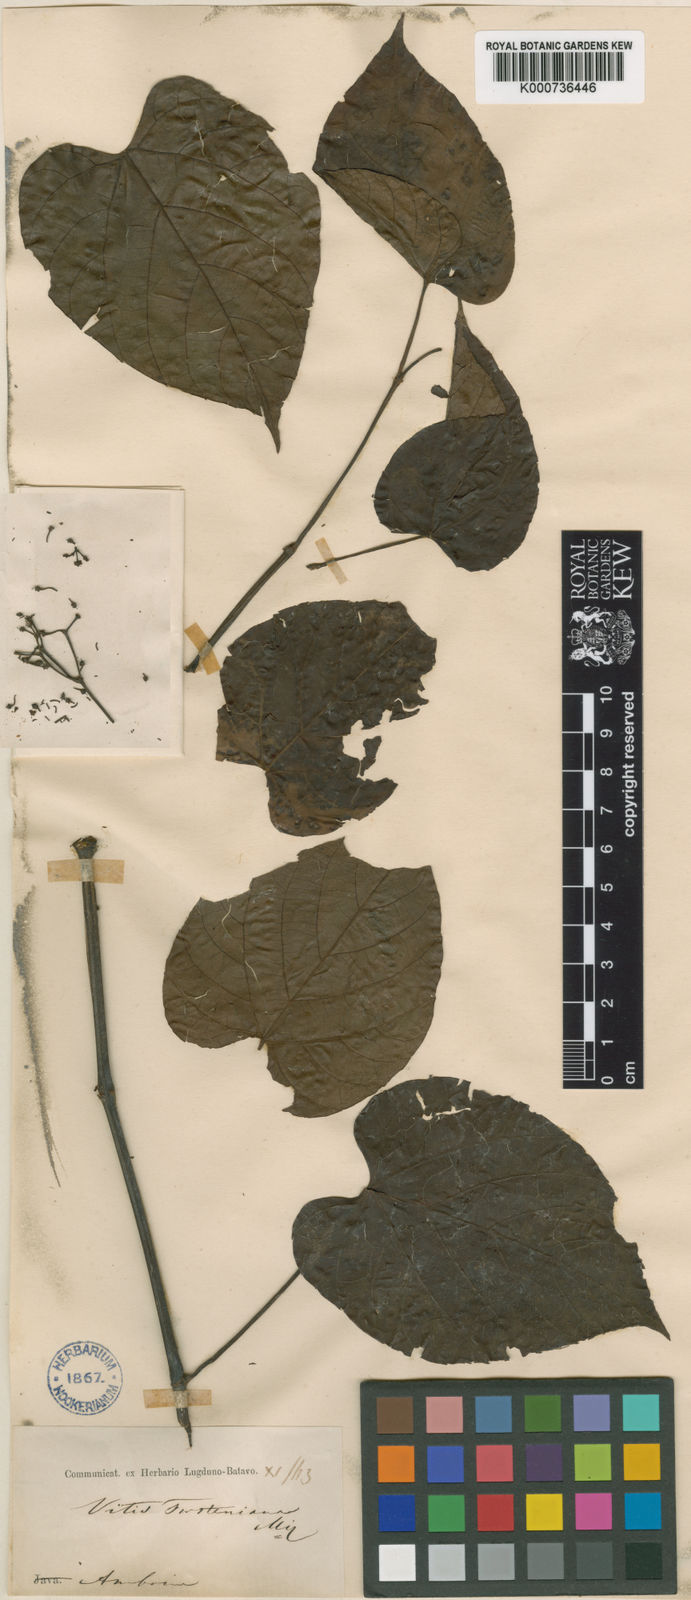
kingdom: Plantae
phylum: Tracheophyta
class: Magnoliopsida
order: Vitales
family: Vitaceae
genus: Cissus
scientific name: Cissus forsteniana
